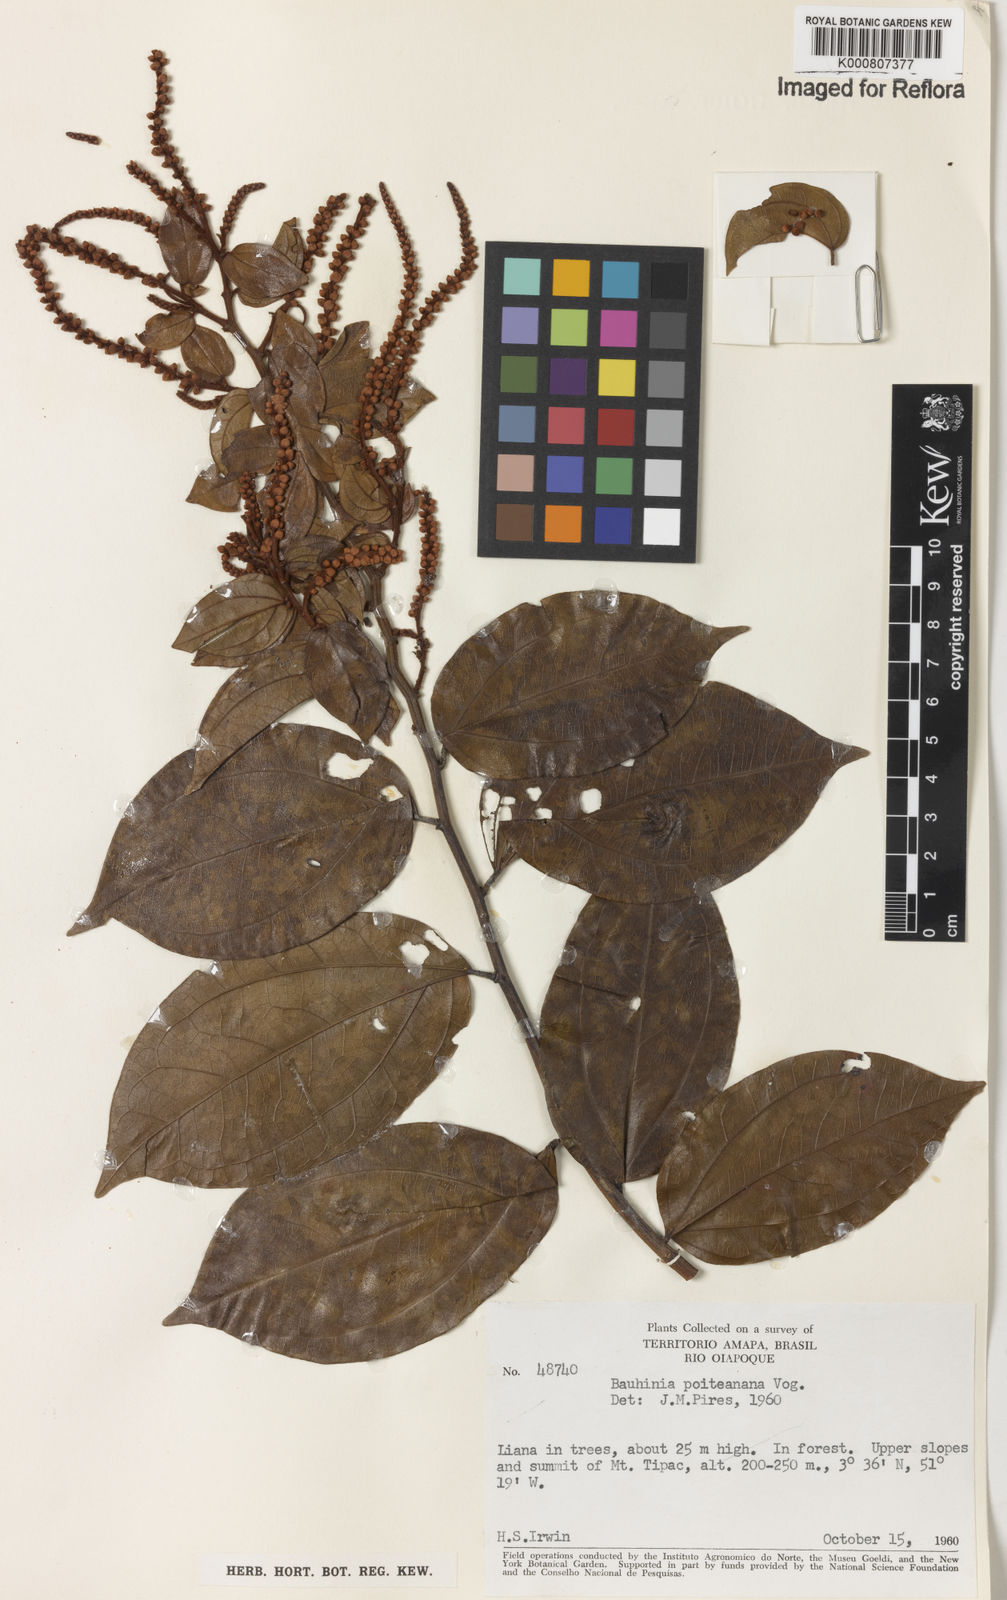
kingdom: Plantae
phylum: Tracheophyta
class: Magnoliopsida
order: Fabales
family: Fabaceae
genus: Schnella
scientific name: Schnella poiteauana
